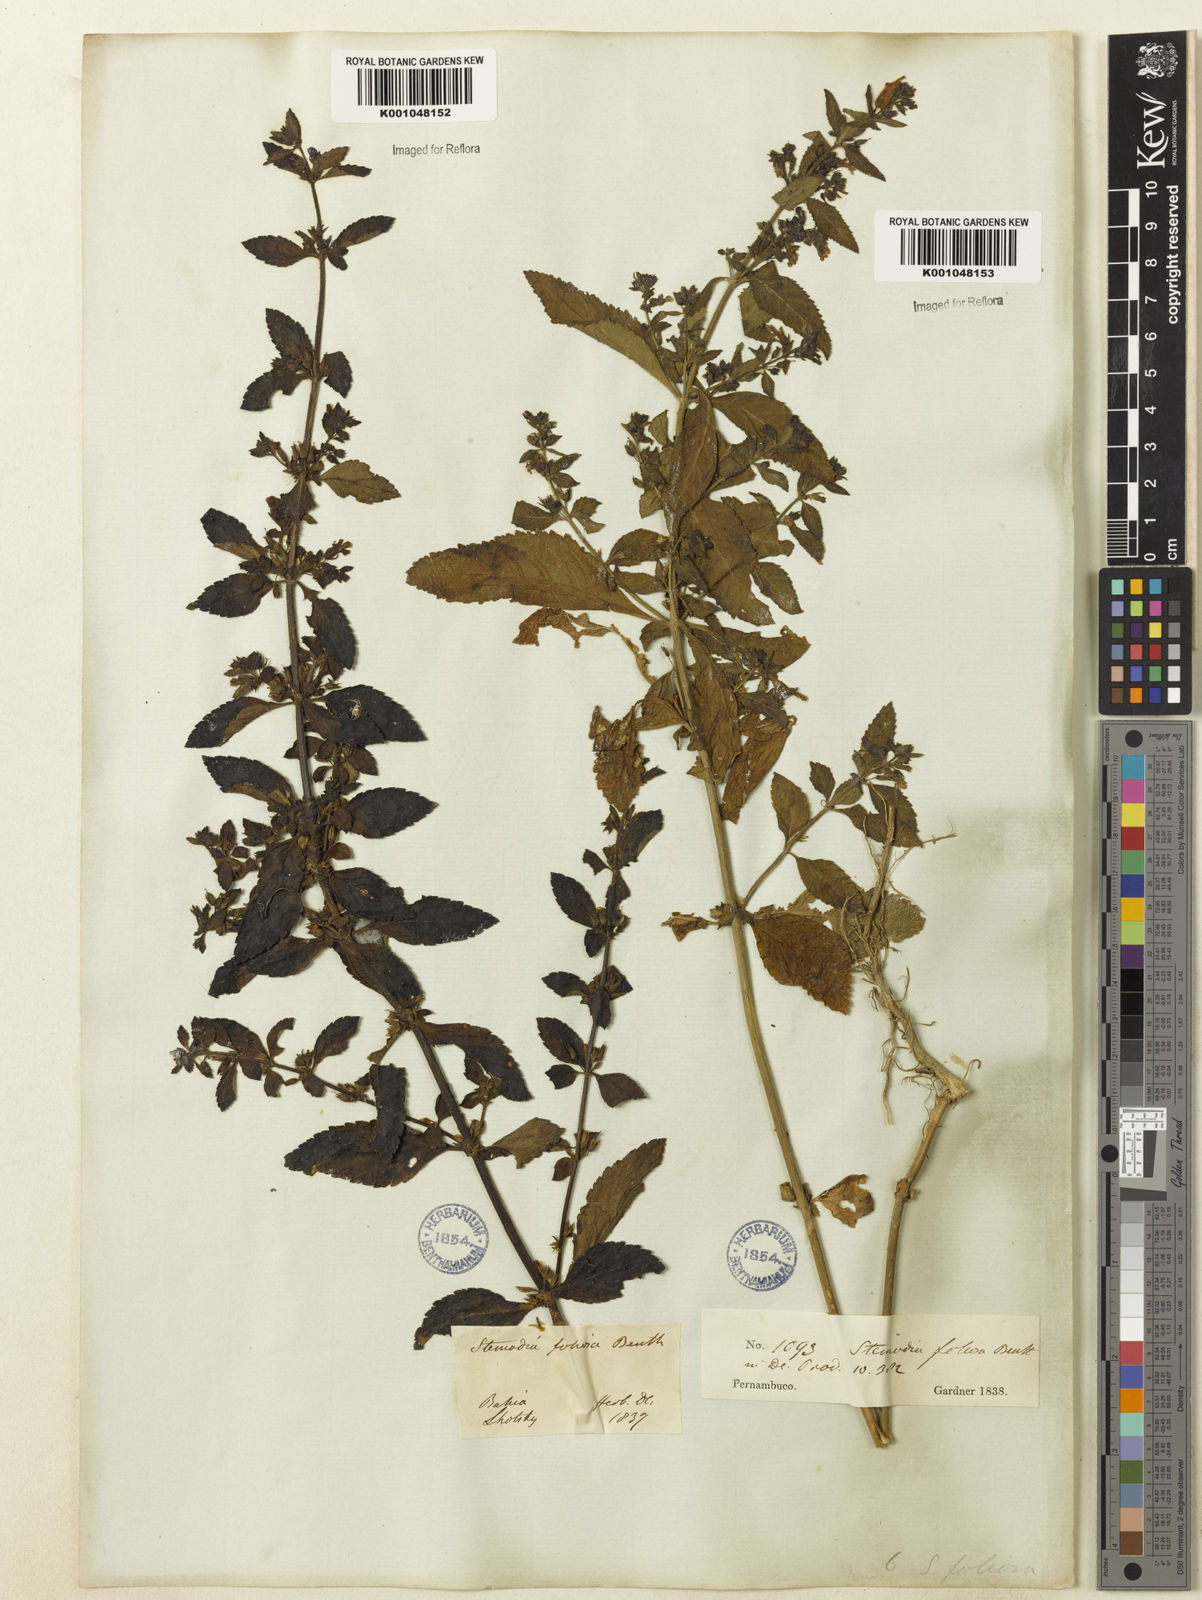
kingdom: Plantae
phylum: Tracheophyta
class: Magnoliopsida
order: Lamiales
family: Plantaginaceae
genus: Stemodia
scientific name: Stemodia foliosa
